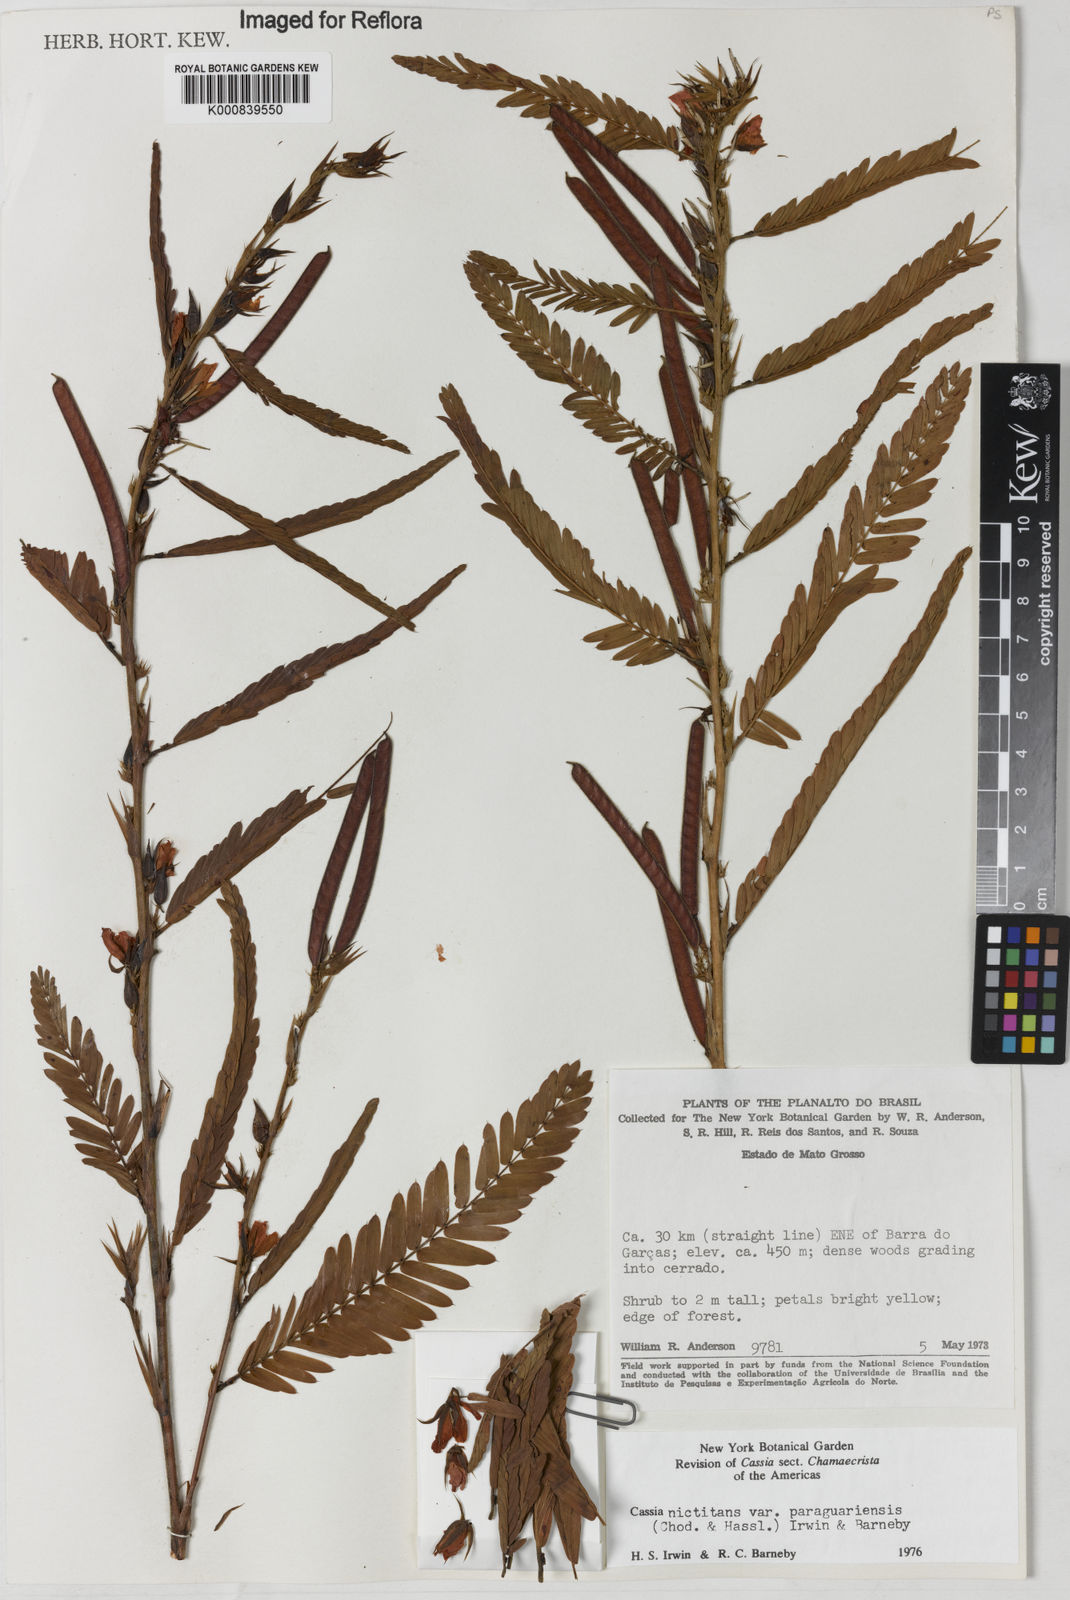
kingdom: Plantae
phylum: Tracheophyta
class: Magnoliopsida
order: Fabales
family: Fabaceae
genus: Chamaecrista
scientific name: Chamaecrista nictitans
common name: Sensitive cassia
